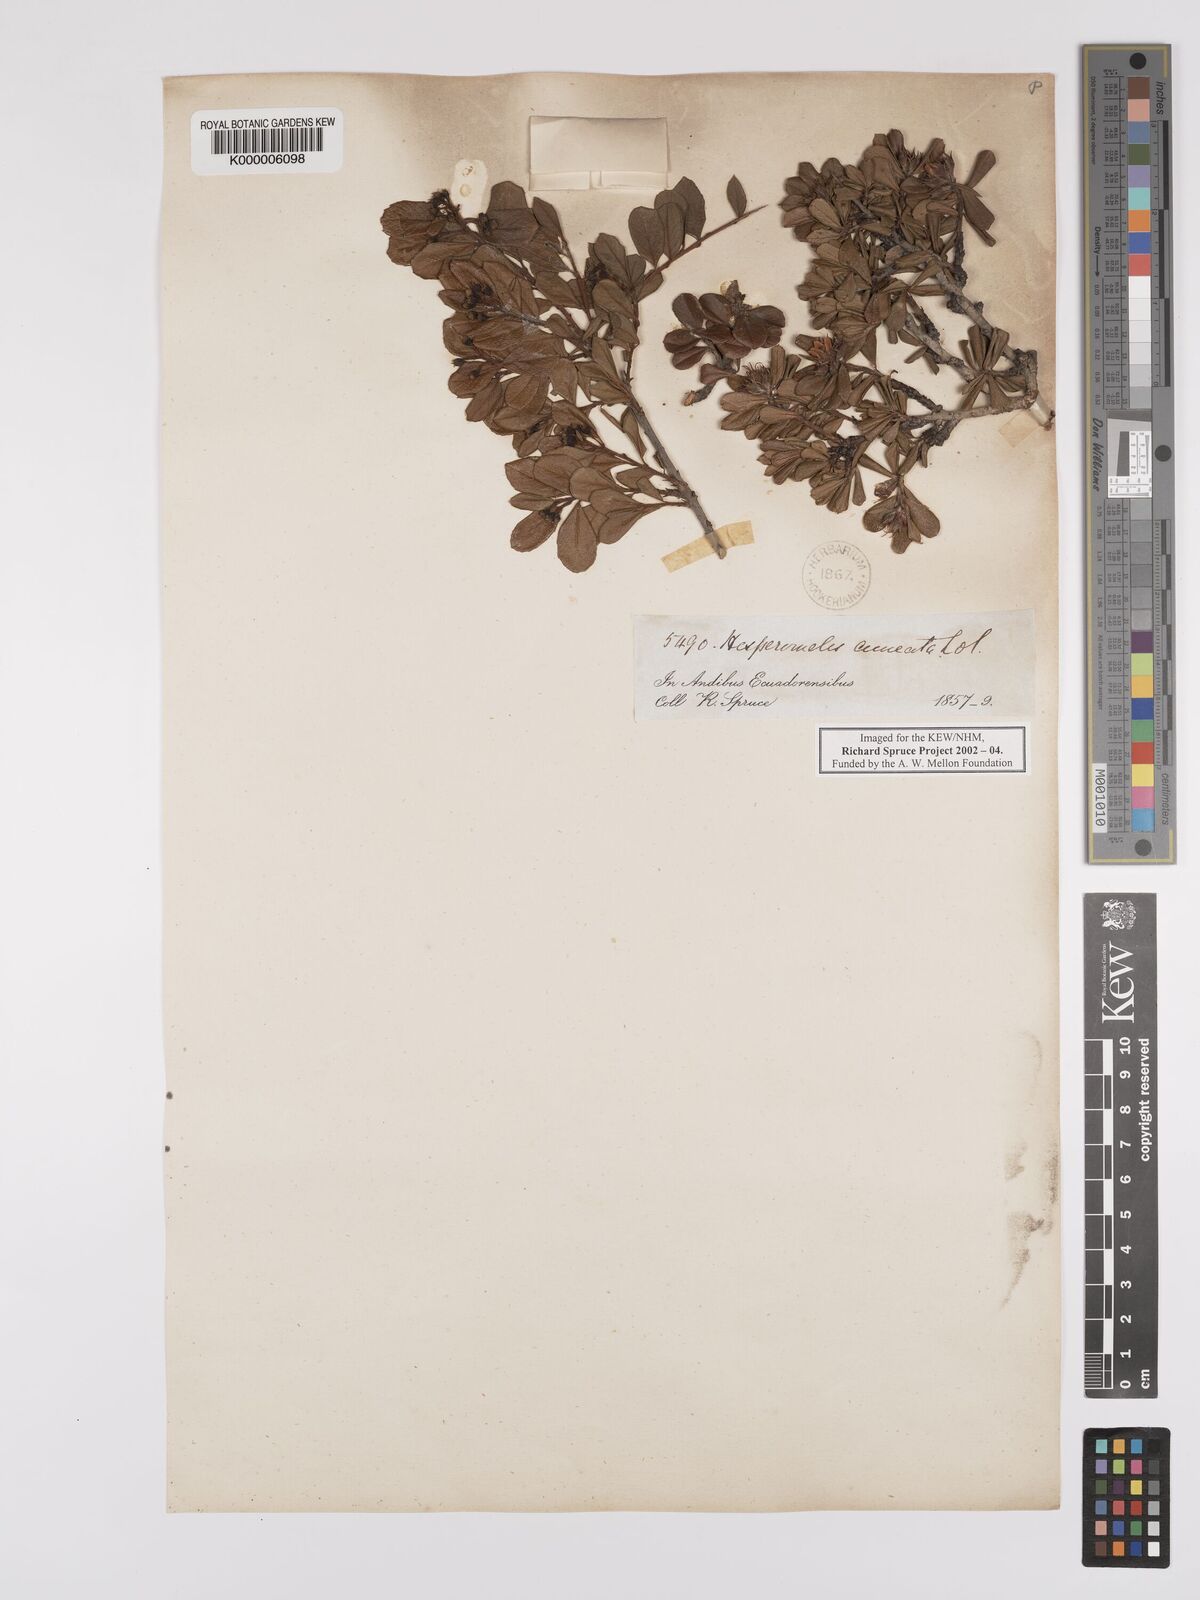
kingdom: Plantae
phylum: Tracheophyta
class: Magnoliopsida
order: Rosales
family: Rosaceae
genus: Hesperomeles
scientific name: Hesperomeles cuneata
